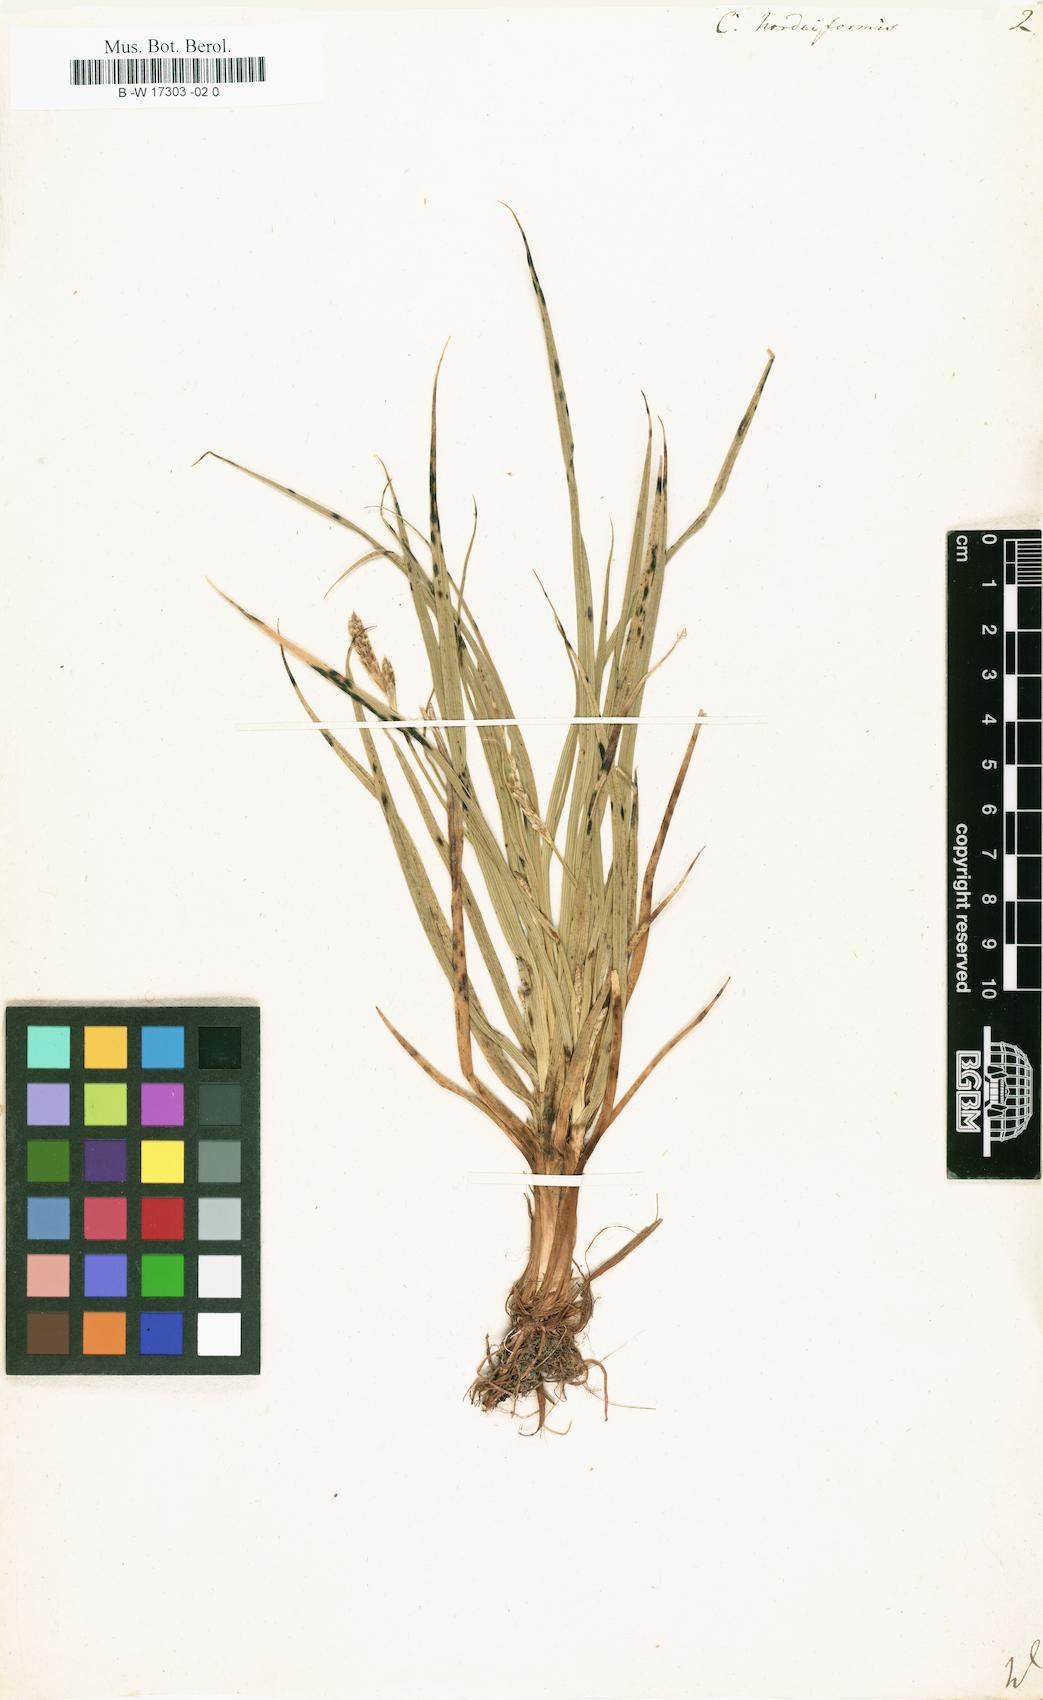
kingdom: Plantae
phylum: Tracheophyta
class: Liliopsida
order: Poales
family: Cyperaceae
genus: Carex
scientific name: Carex hordeistichos
